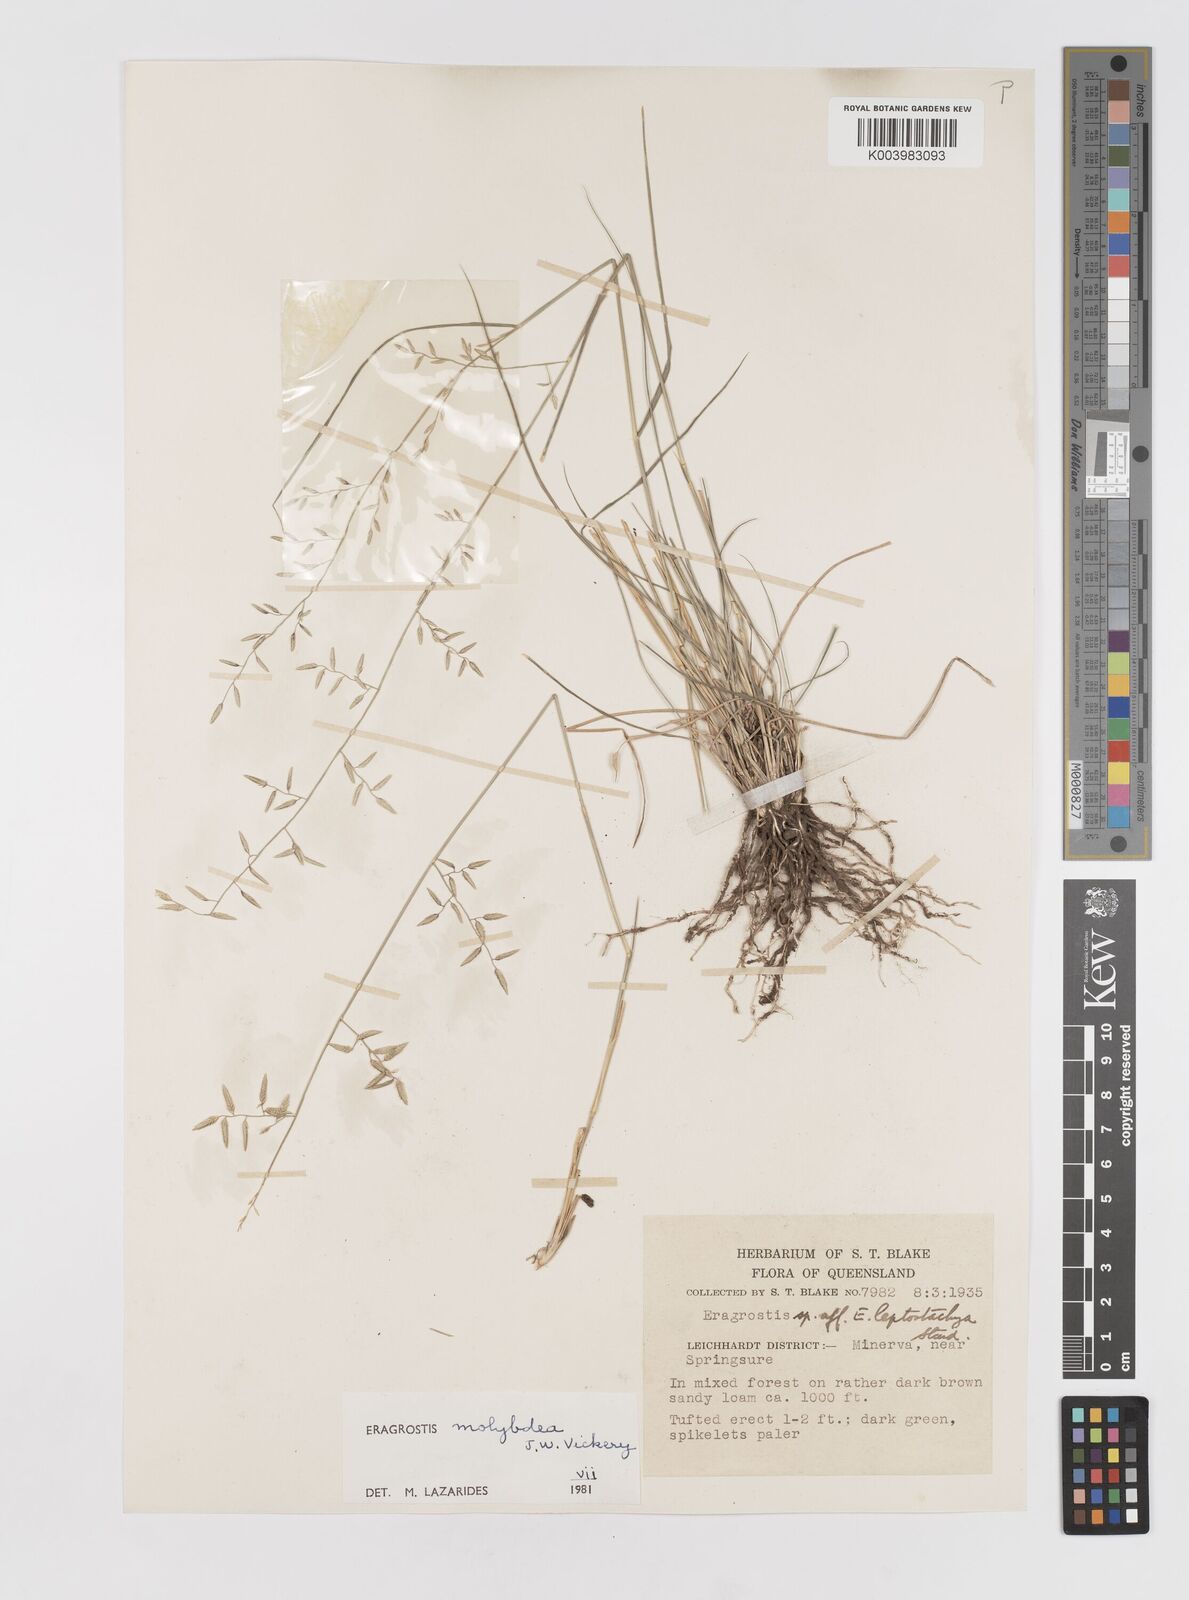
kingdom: Plantae
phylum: Tracheophyta
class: Liliopsida
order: Poales
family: Poaceae
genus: Eragrostis
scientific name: Eragrostis leptostachya
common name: Australian lovegrass
